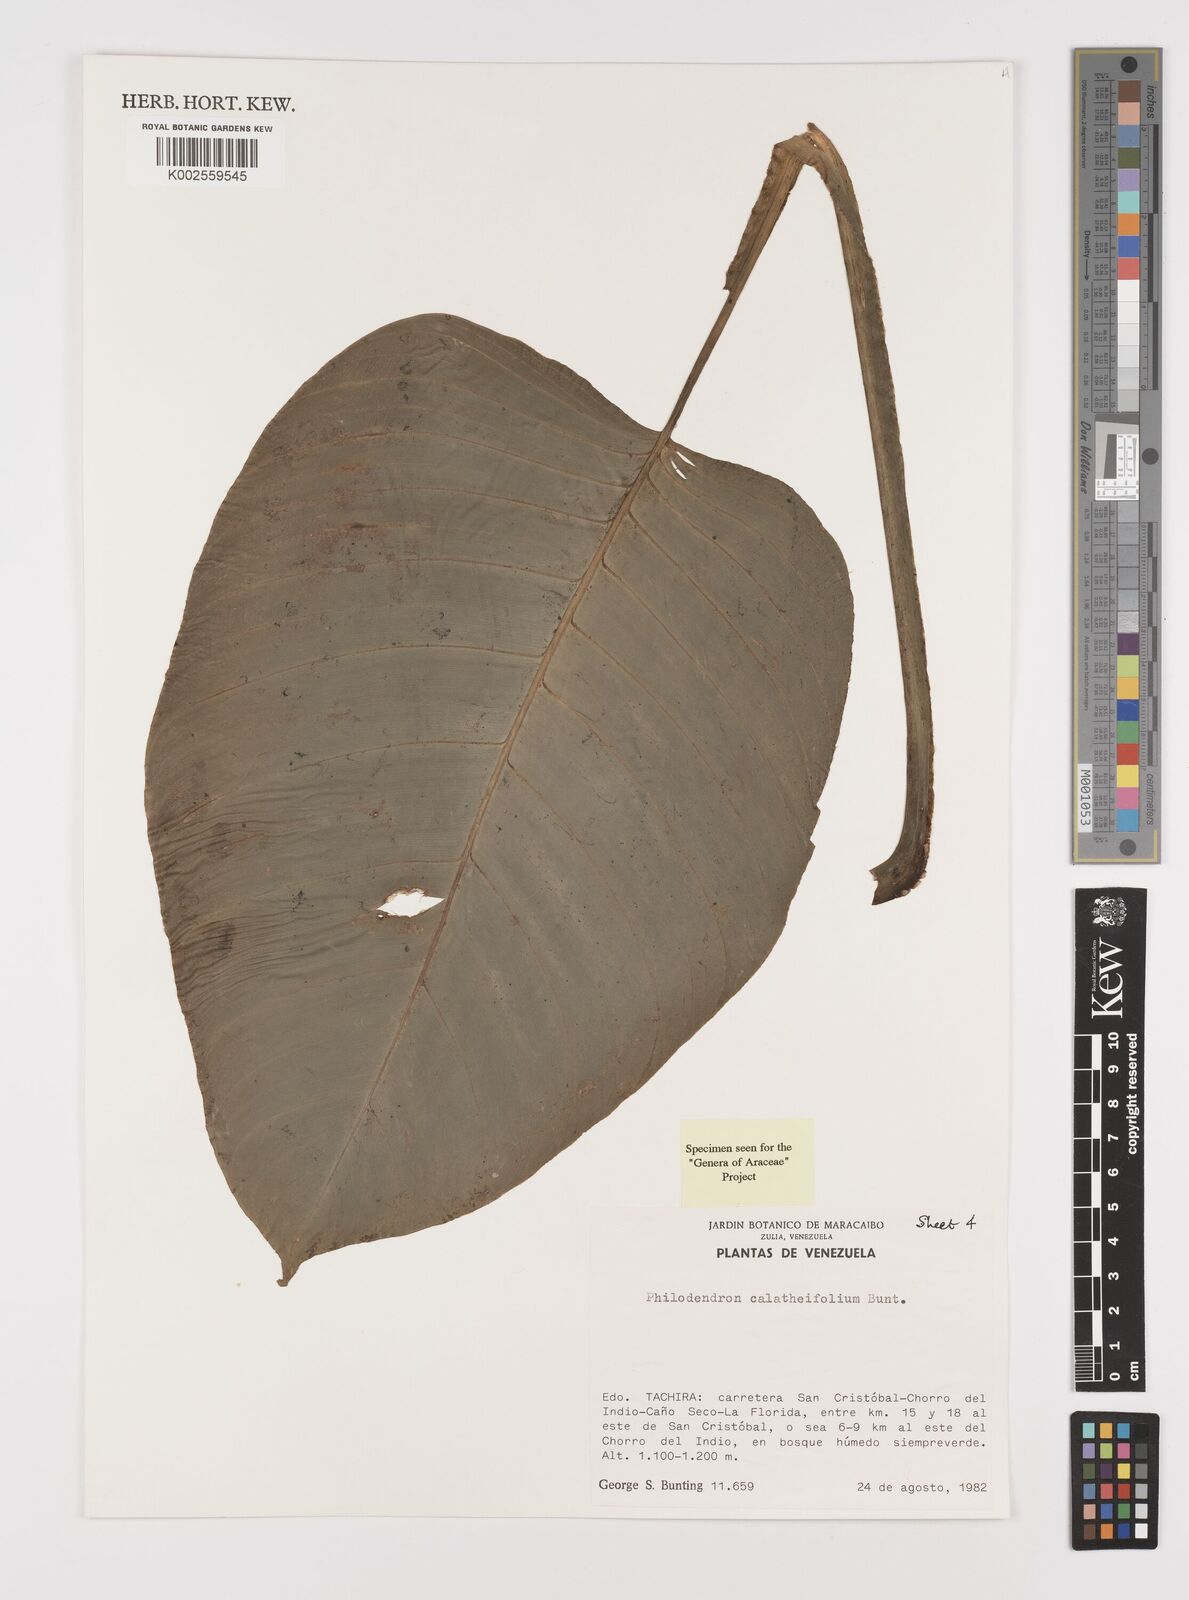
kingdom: Plantae
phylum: Tracheophyta
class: Liliopsida
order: Alismatales
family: Araceae
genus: Philodendron
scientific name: Philodendron calatheifolium
